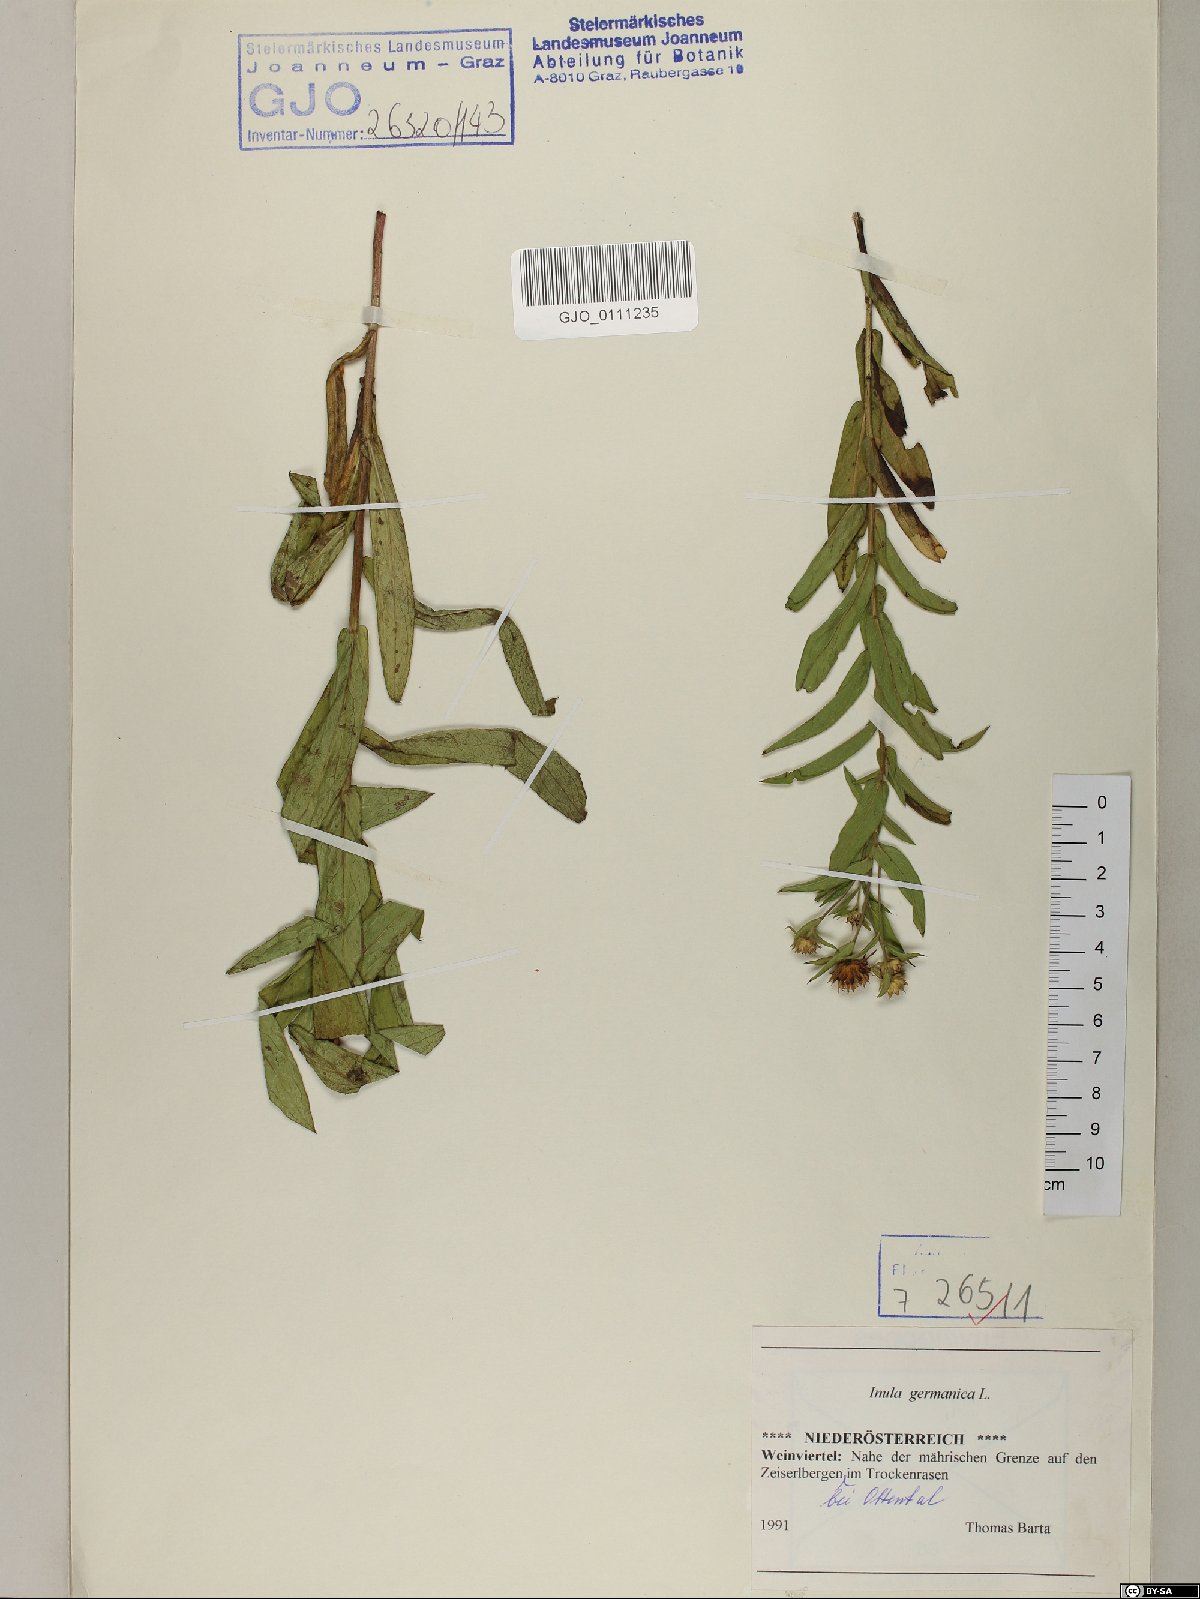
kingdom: Plantae
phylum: Tracheophyta
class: Magnoliopsida
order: Asterales
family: Asteraceae
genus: Pentanema
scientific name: Pentanema germanicum
